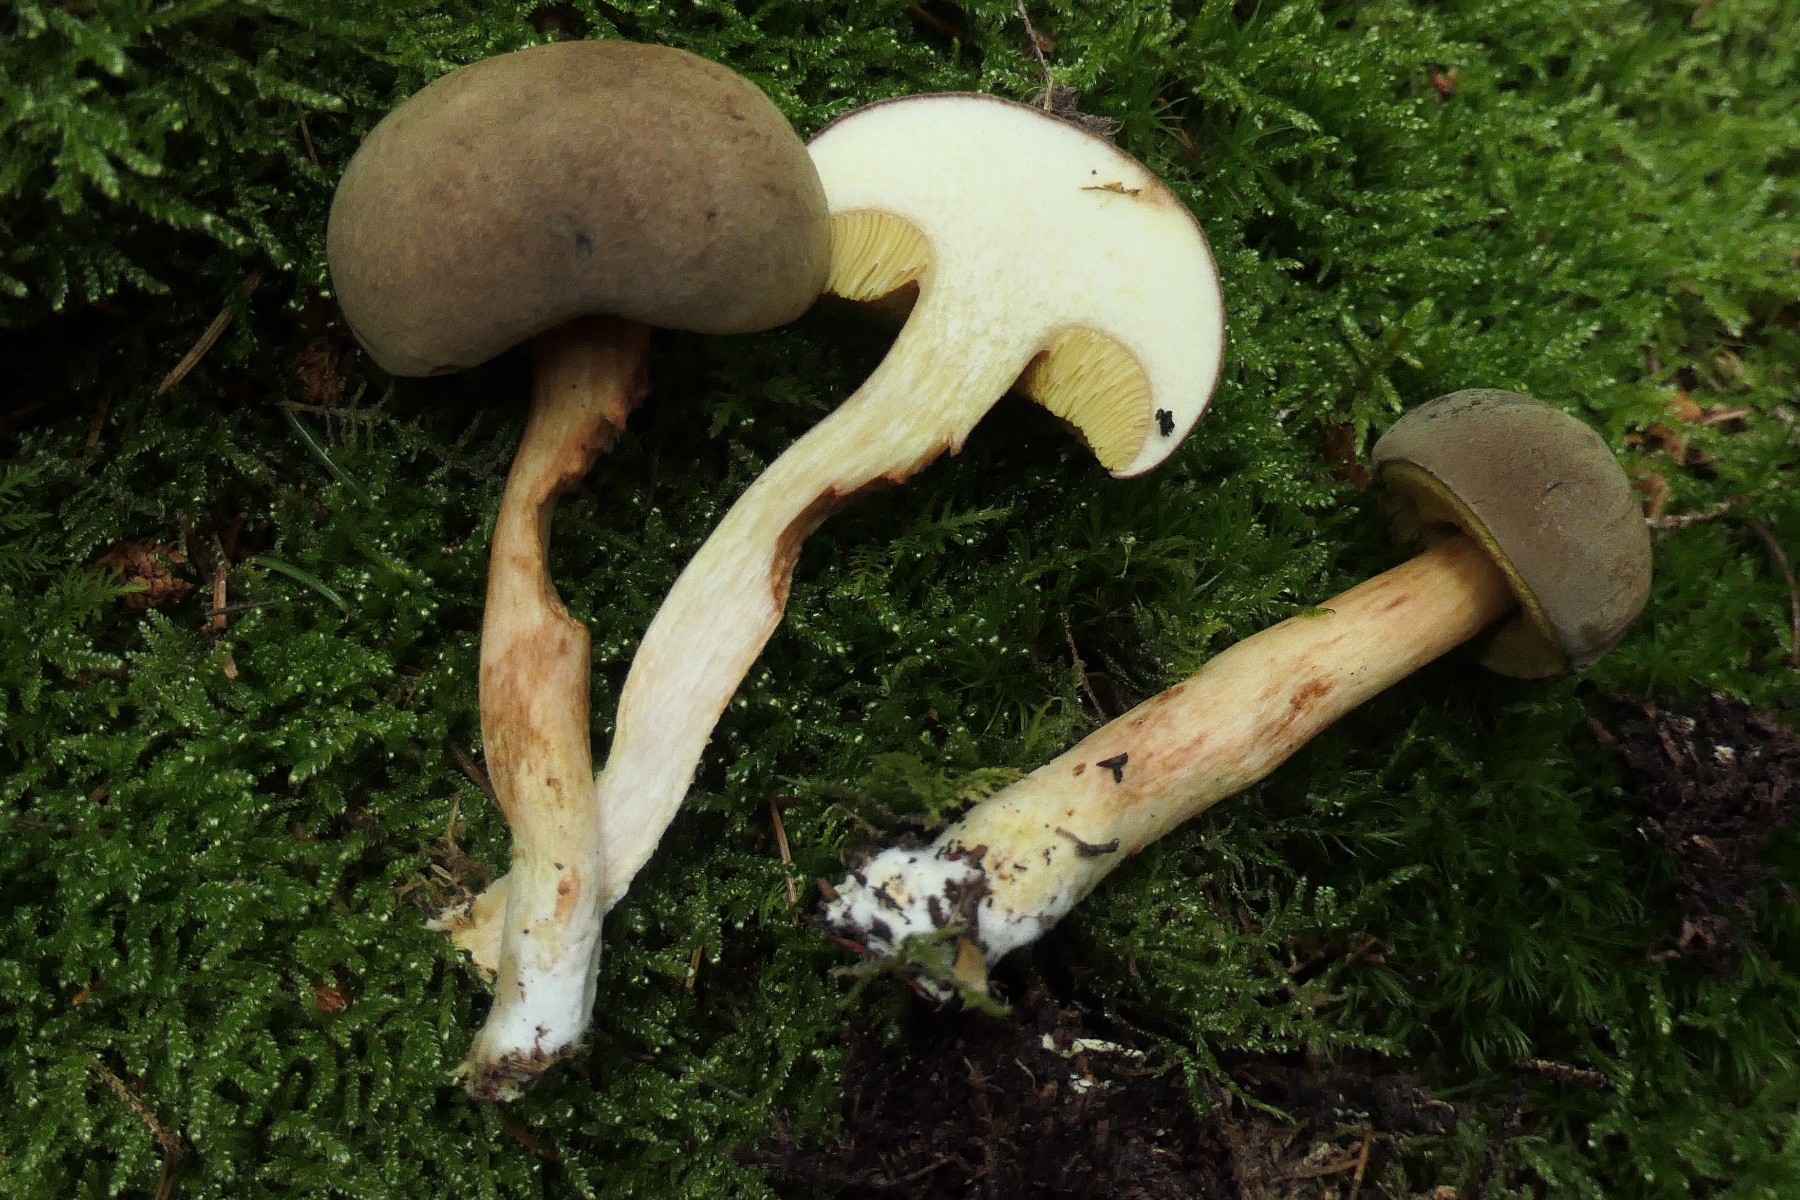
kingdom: Fungi
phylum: Basidiomycota
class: Agaricomycetes
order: Boletales
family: Boletaceae
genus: Xerocomus
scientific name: Xerocomus subtomentosus
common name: filtet rørhat
